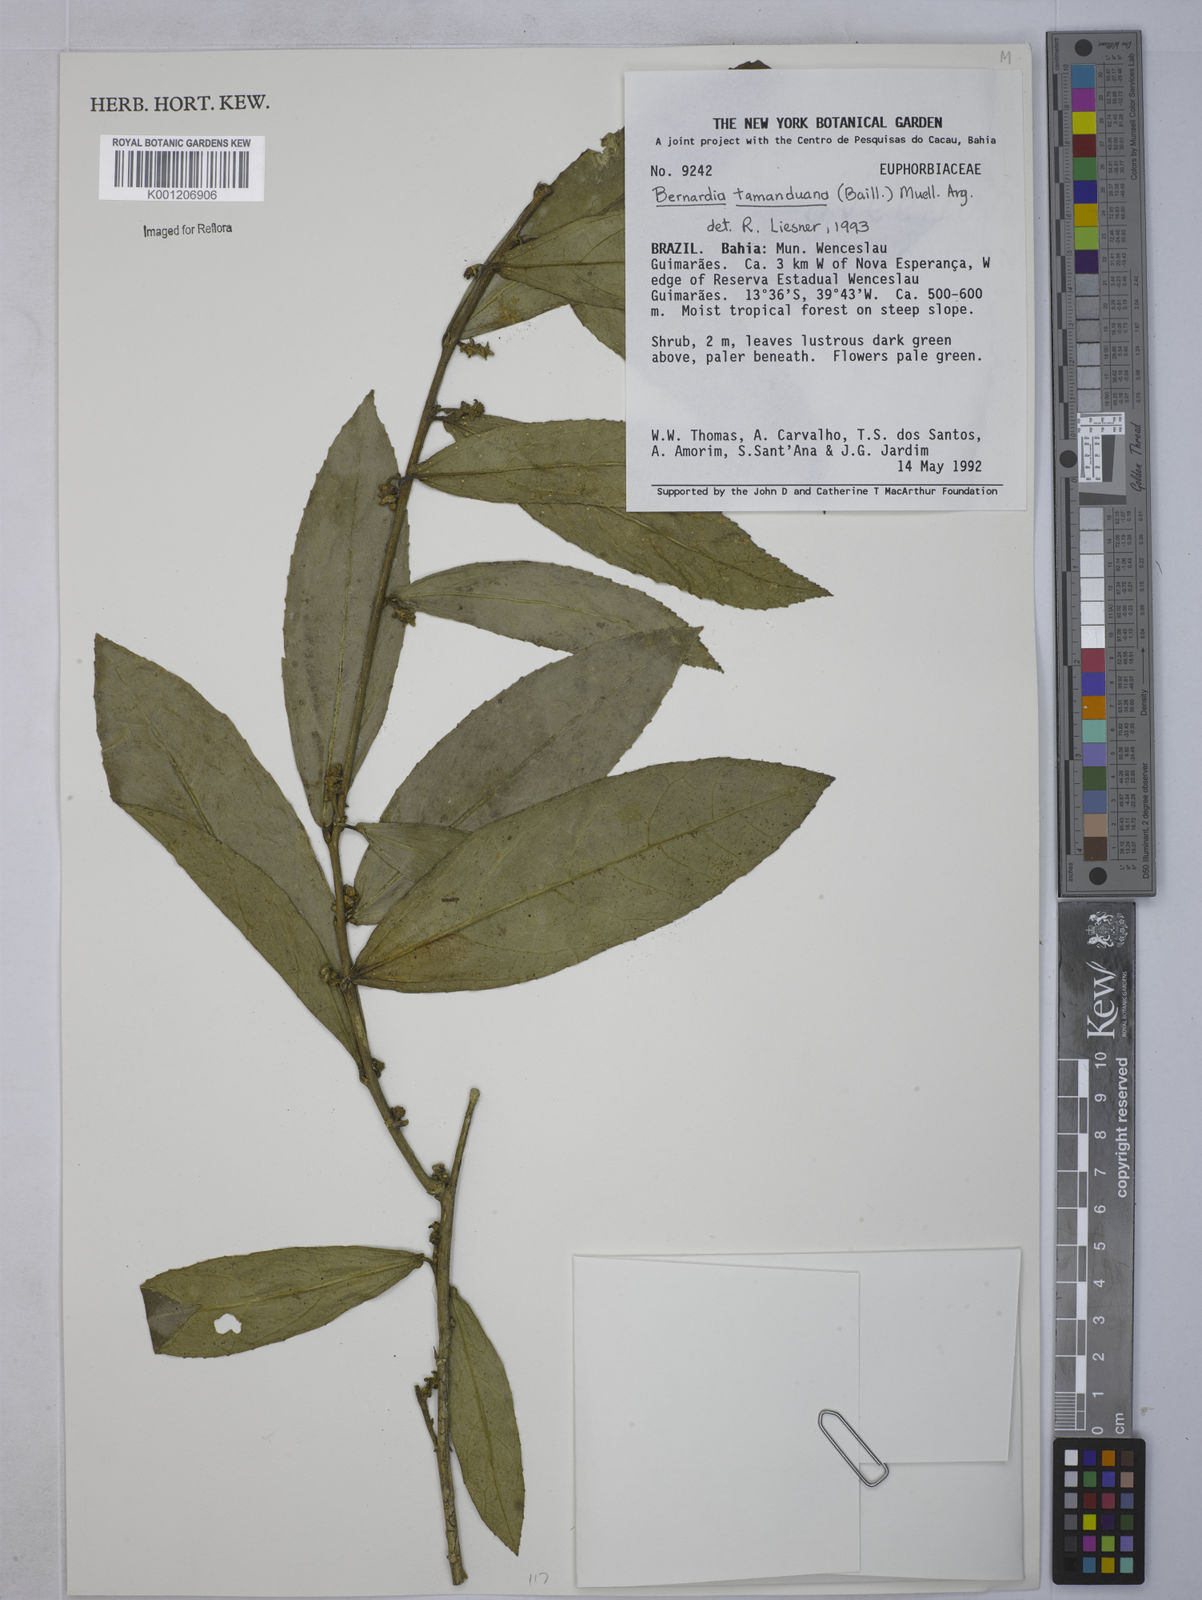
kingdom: Plantae
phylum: Tracheophyta
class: Magnoliopsida
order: Malpighiales
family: Euphorbiaceae
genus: Bernardia
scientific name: Bernardia
